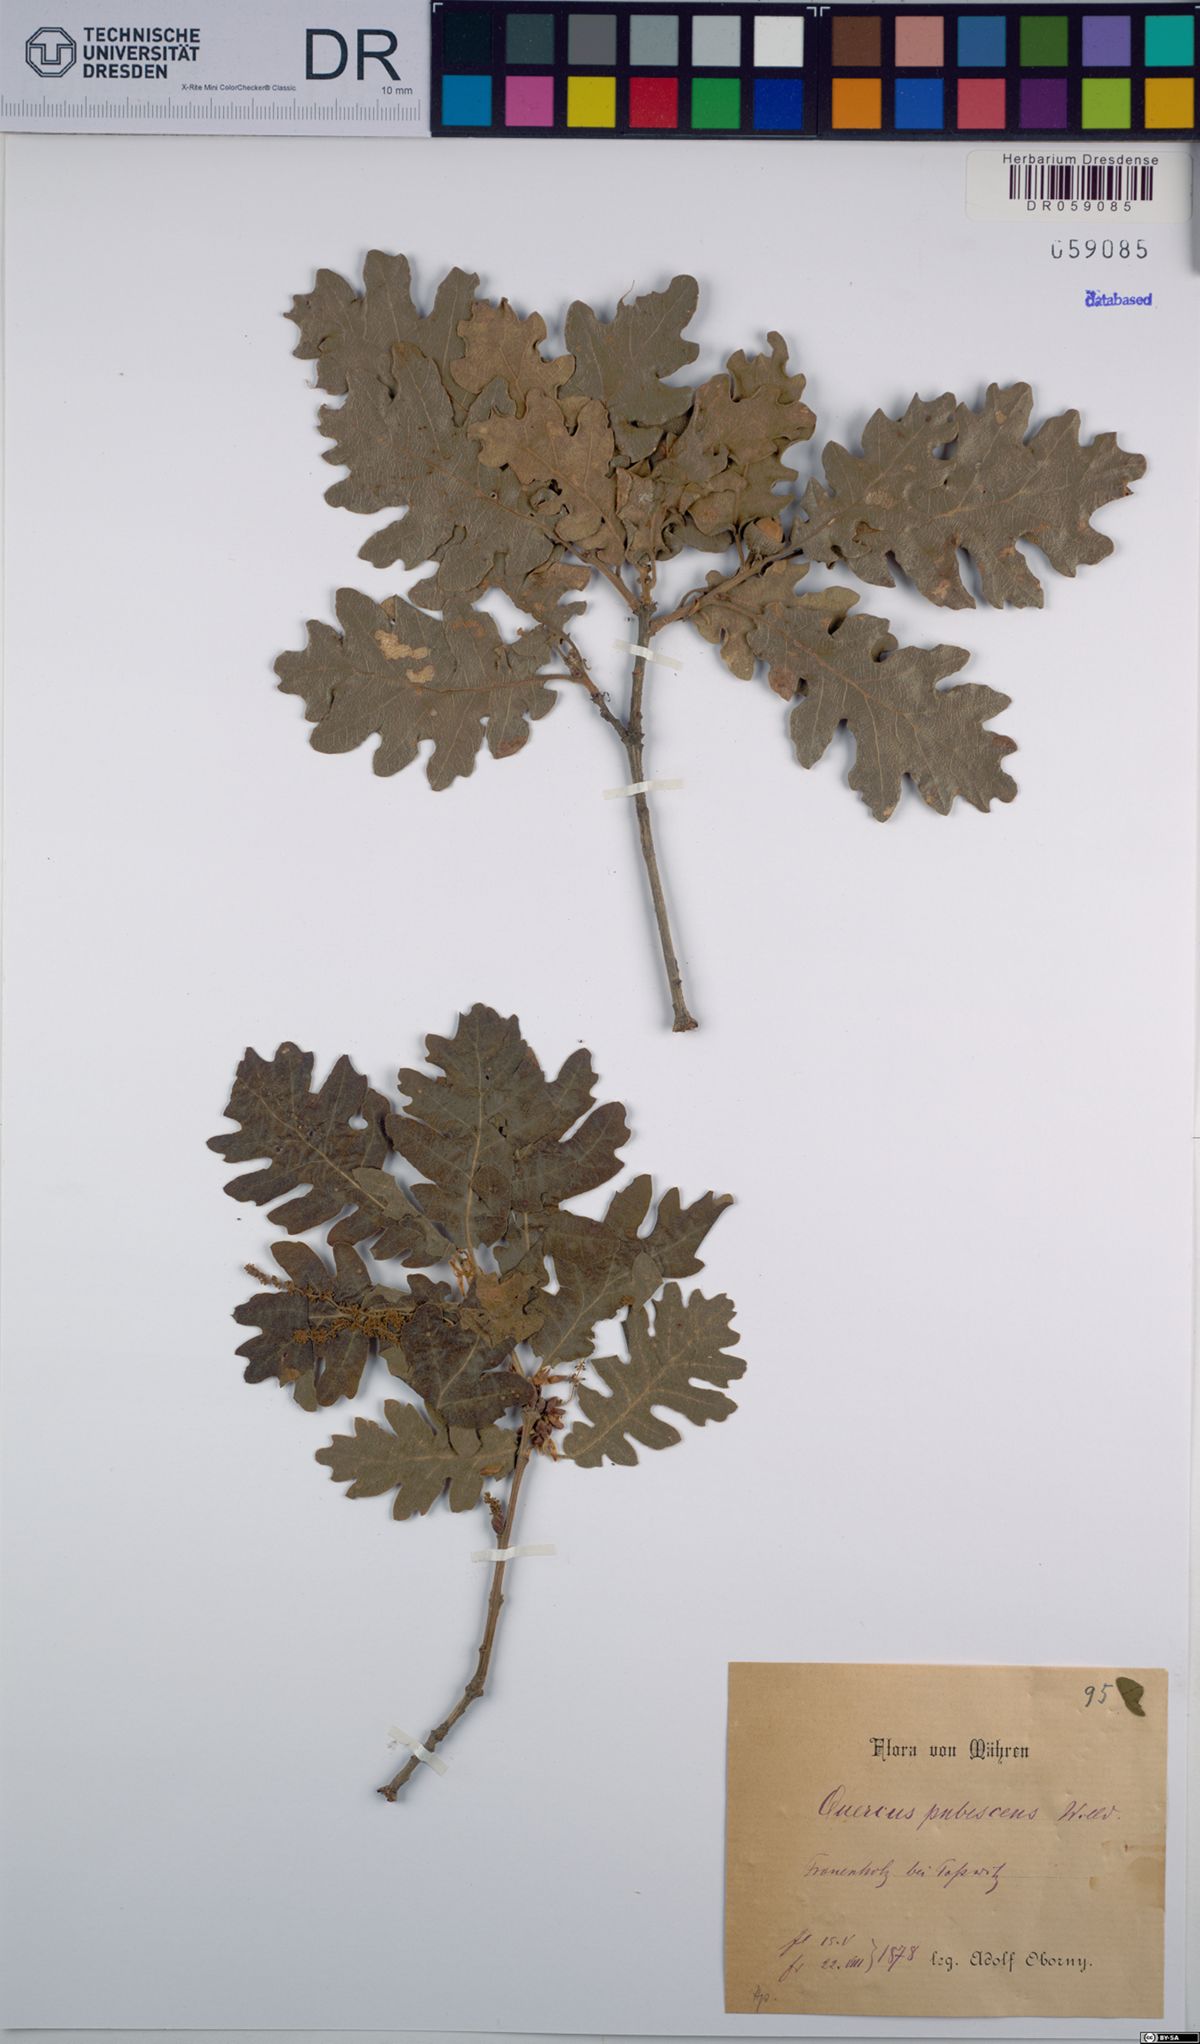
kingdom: Plantae
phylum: Tracheophyta
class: Magnoliopsida
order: Fagales
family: Fagaceae
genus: Quercus
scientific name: Quercus pubescens
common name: Downy oak
